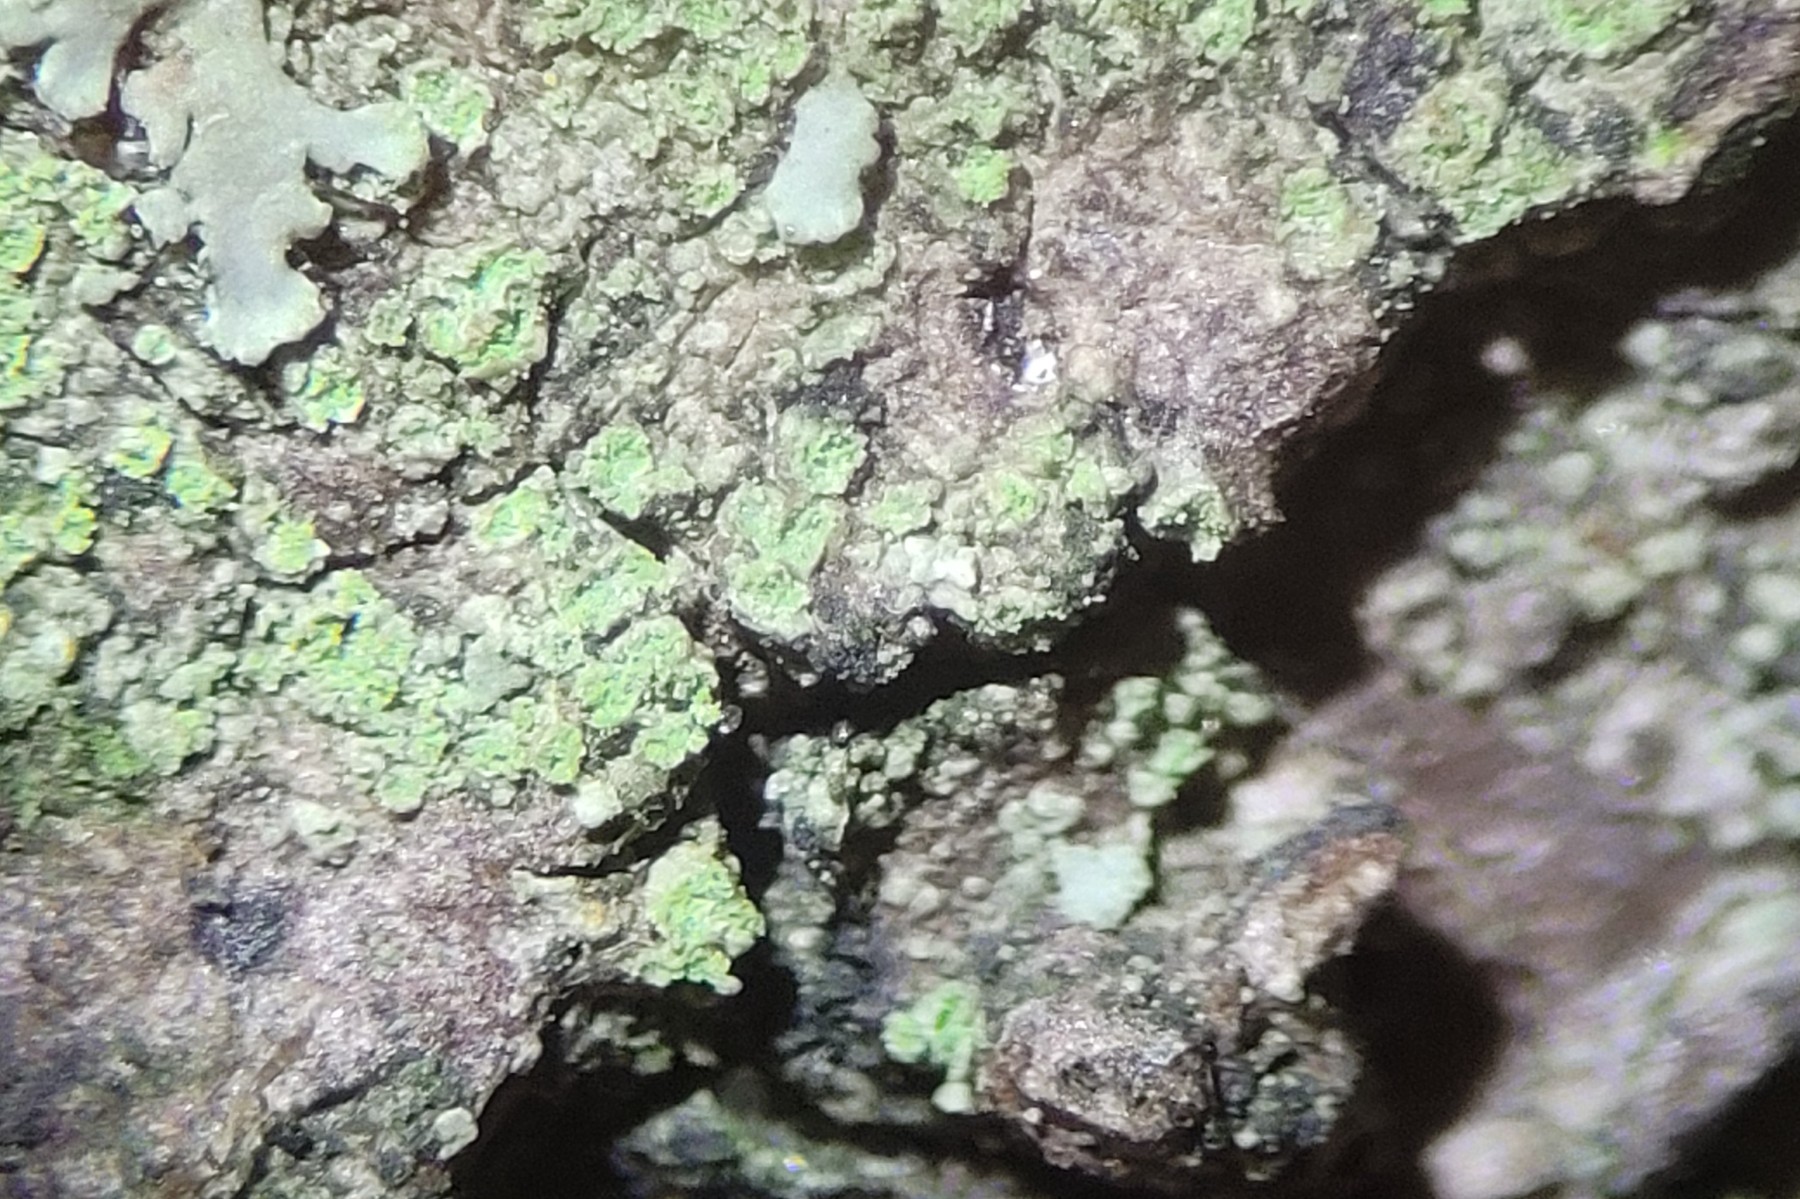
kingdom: Fungi
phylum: Ascomycota
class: Lecanoromycetes
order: Teloschistales
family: Teloschistaceae
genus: Caloplaca
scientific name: Caloplaca obscurella
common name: gråskurvet orangelav
